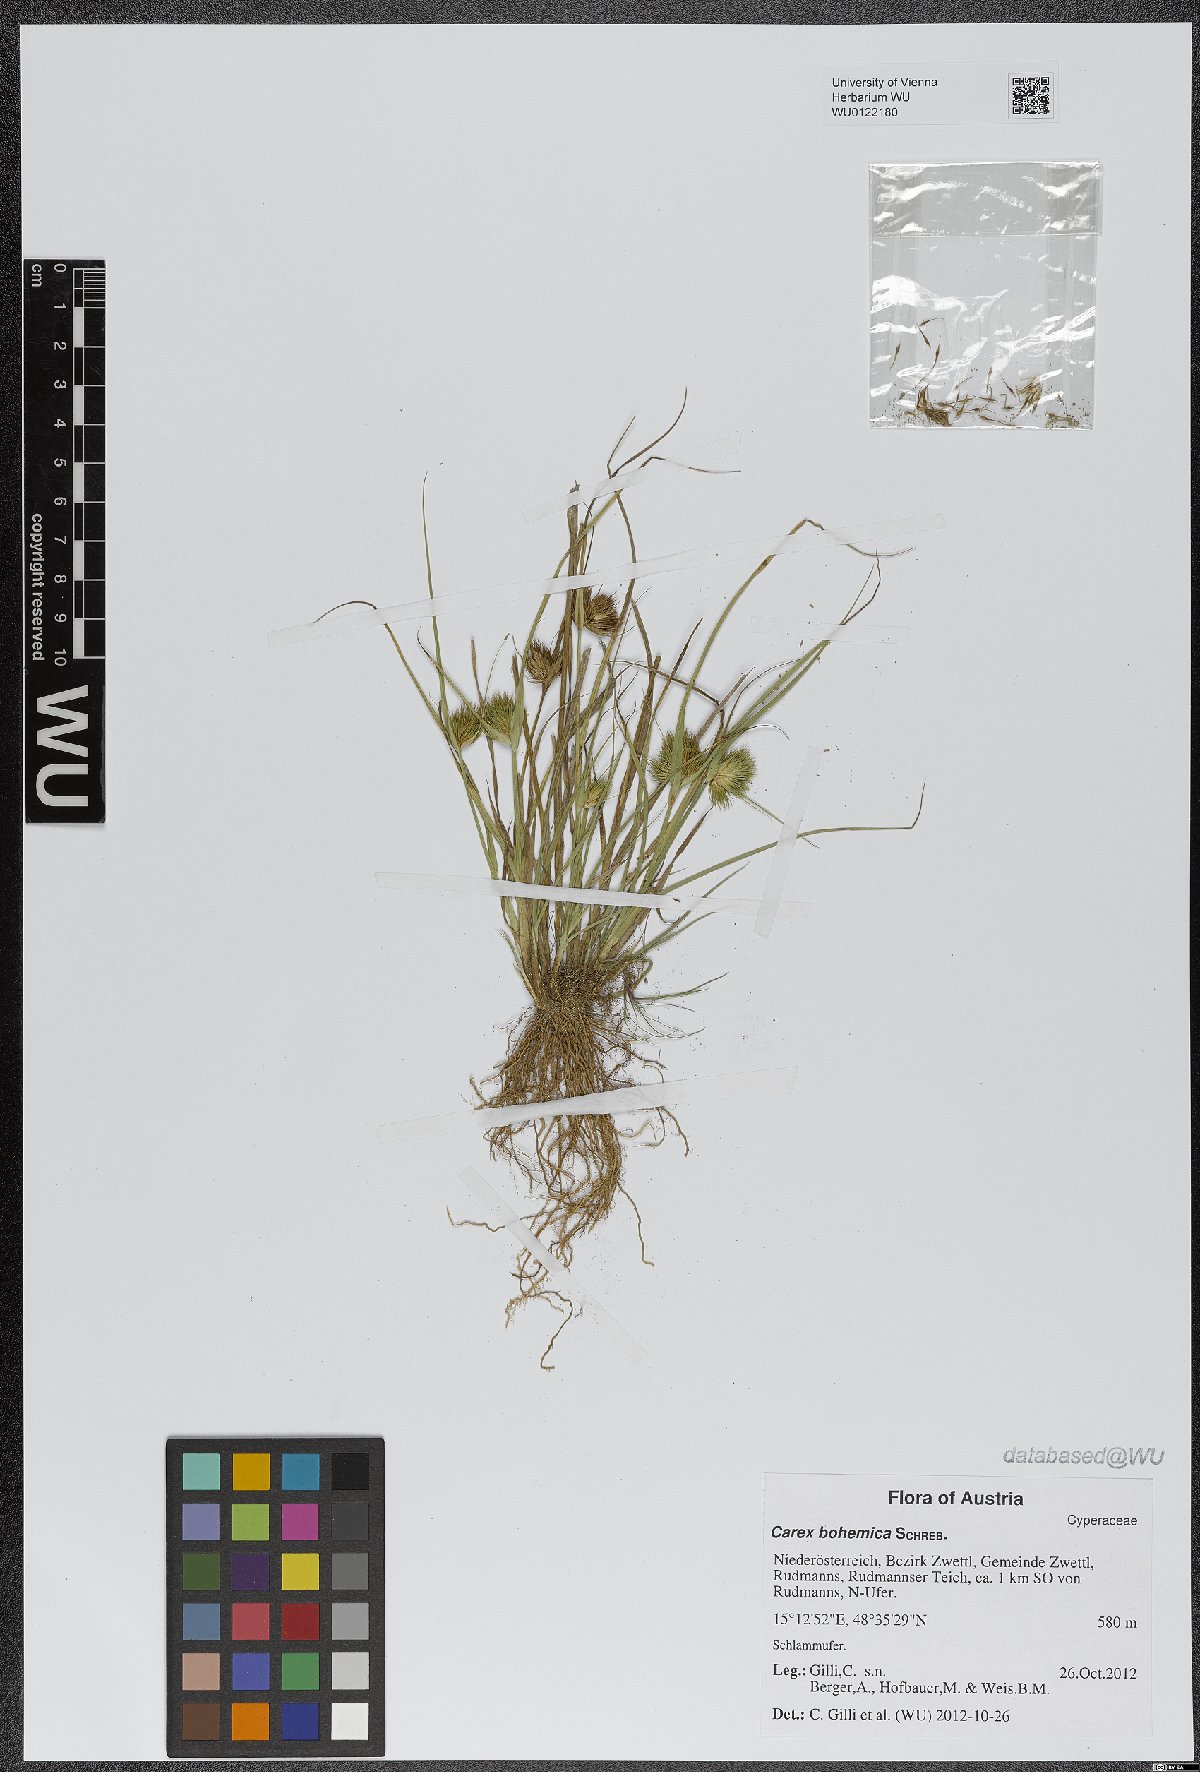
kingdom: Plantae
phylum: Tracheophyta
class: Liliopsida
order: Poales
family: Cyperaceae
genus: Carex
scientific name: Carex bohemica
